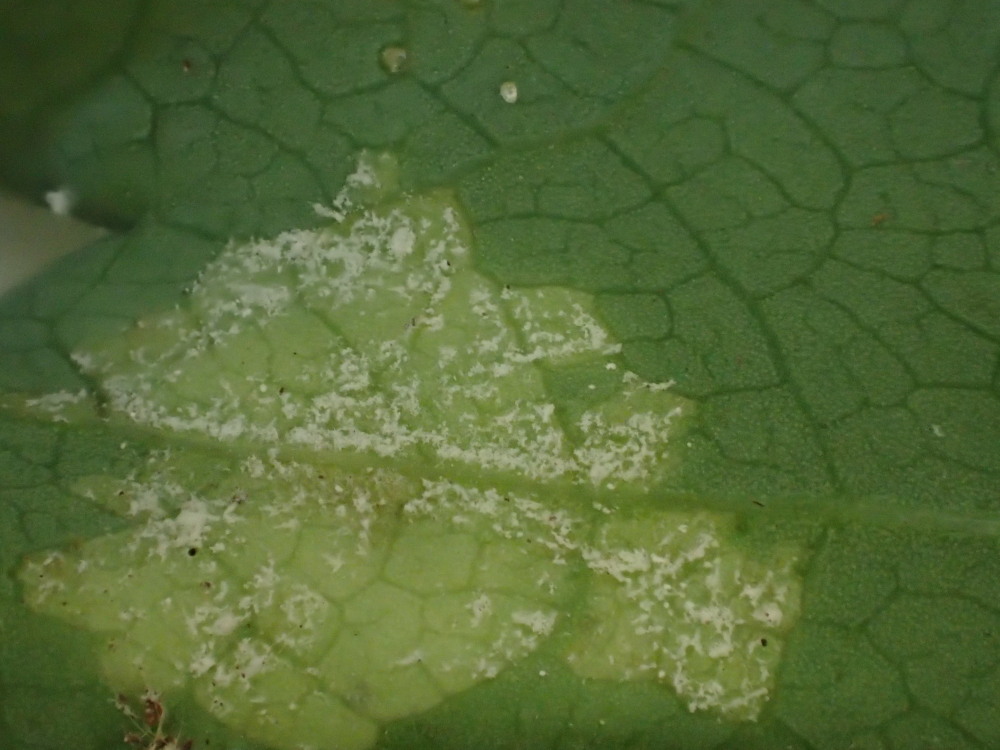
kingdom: Chromista
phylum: Oomycota
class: Peronosporea
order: Peronosporales
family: Peronosporaceae
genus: Peronospora
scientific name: Peronospora crustosa
